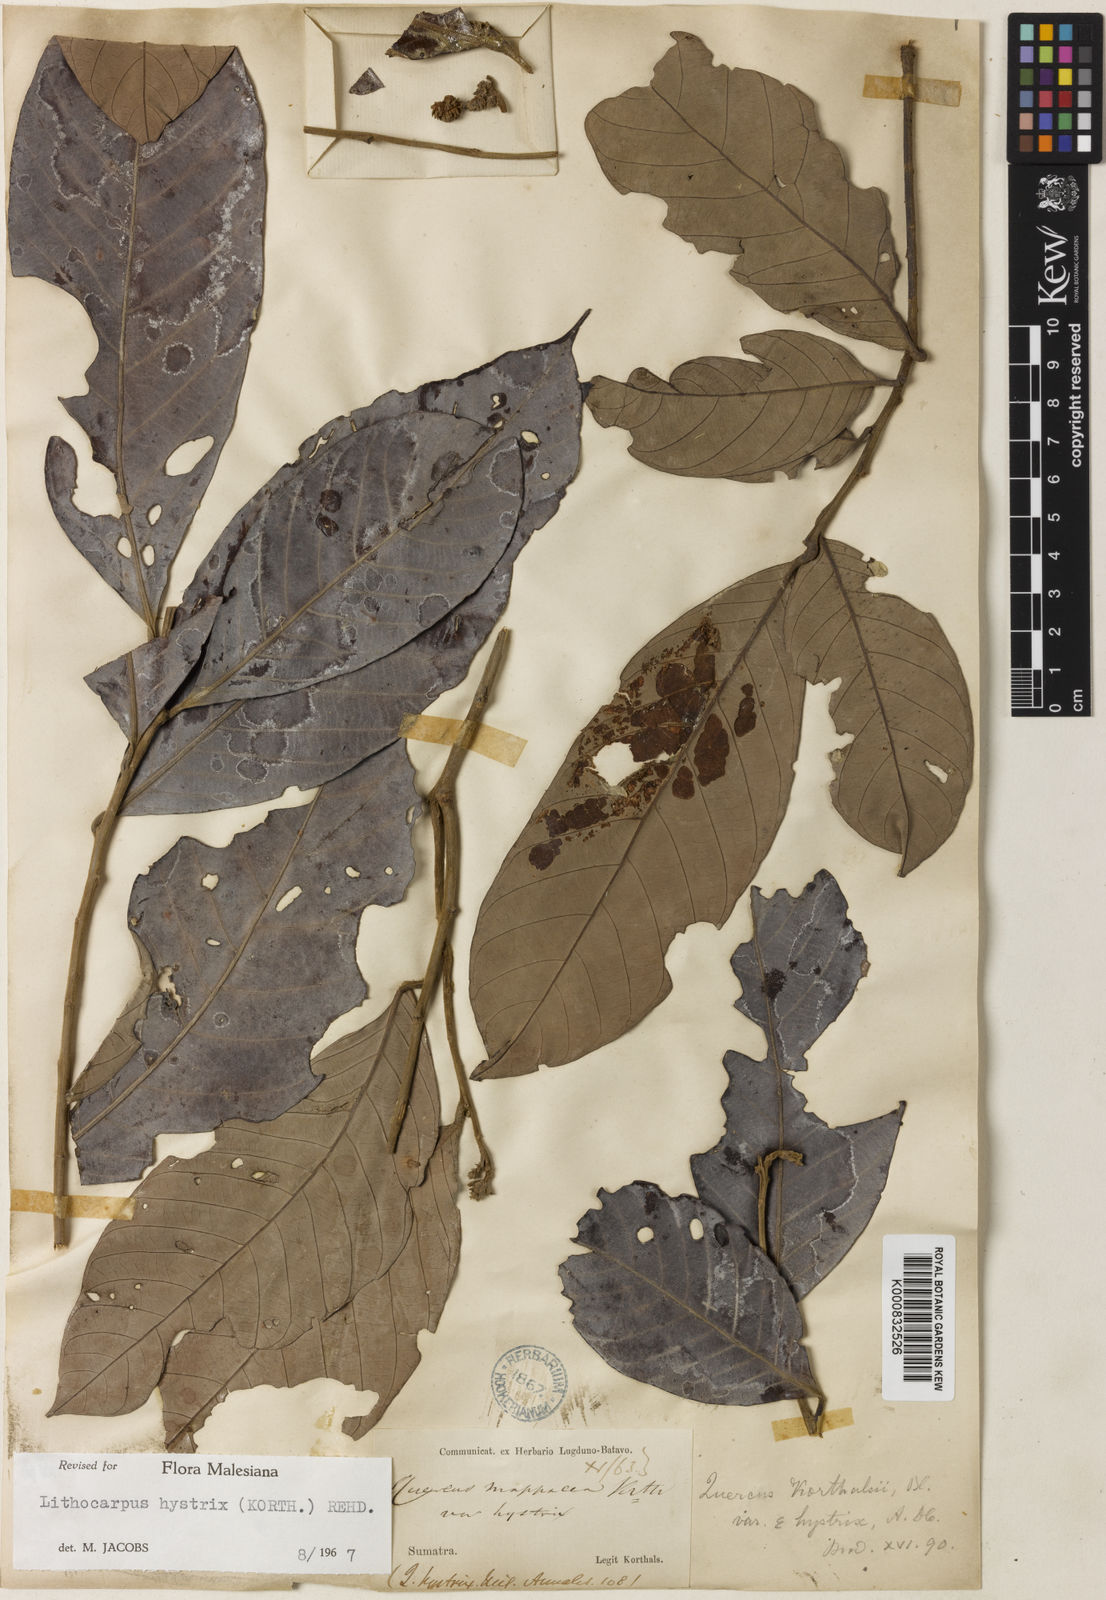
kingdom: Plantae
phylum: Tracheophyta
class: Magnoliopsida
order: Fagales
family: Fagaceae
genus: Lithocarpus
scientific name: Lithocarpus hystrix
